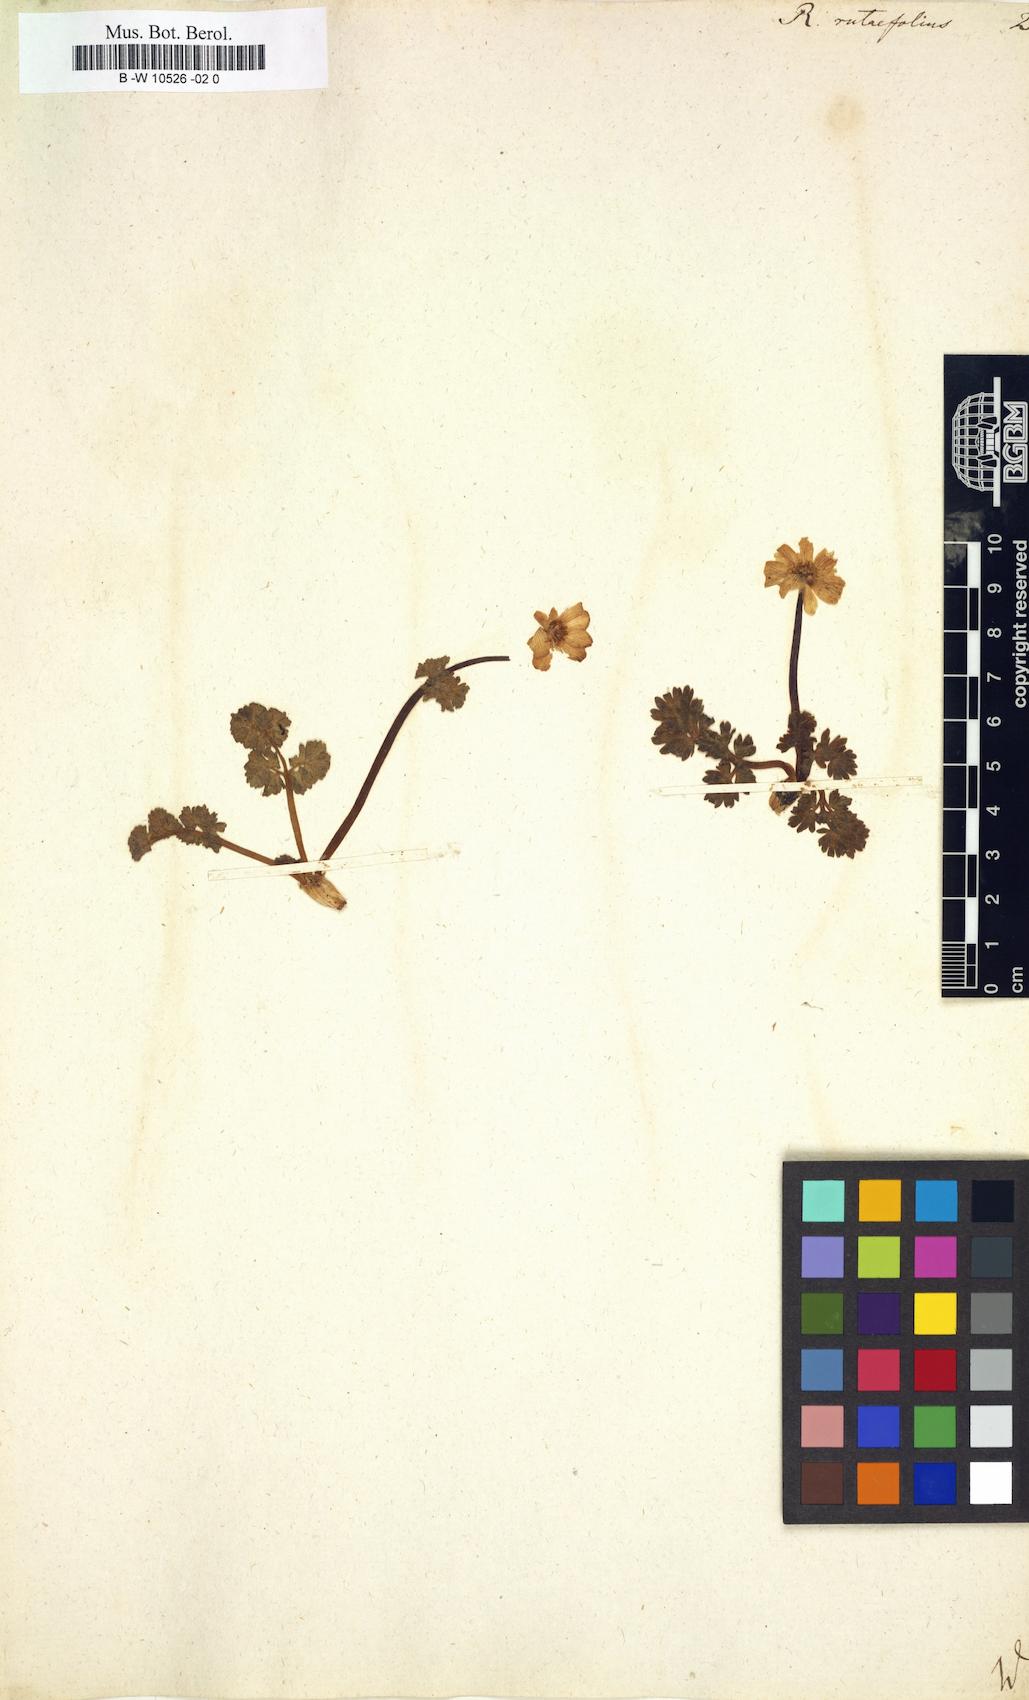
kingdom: Plantae
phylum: Tracheophyta
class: Magnoliopsida
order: Ranunculales
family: Ranunculaceae
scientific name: Ranunculaceae
